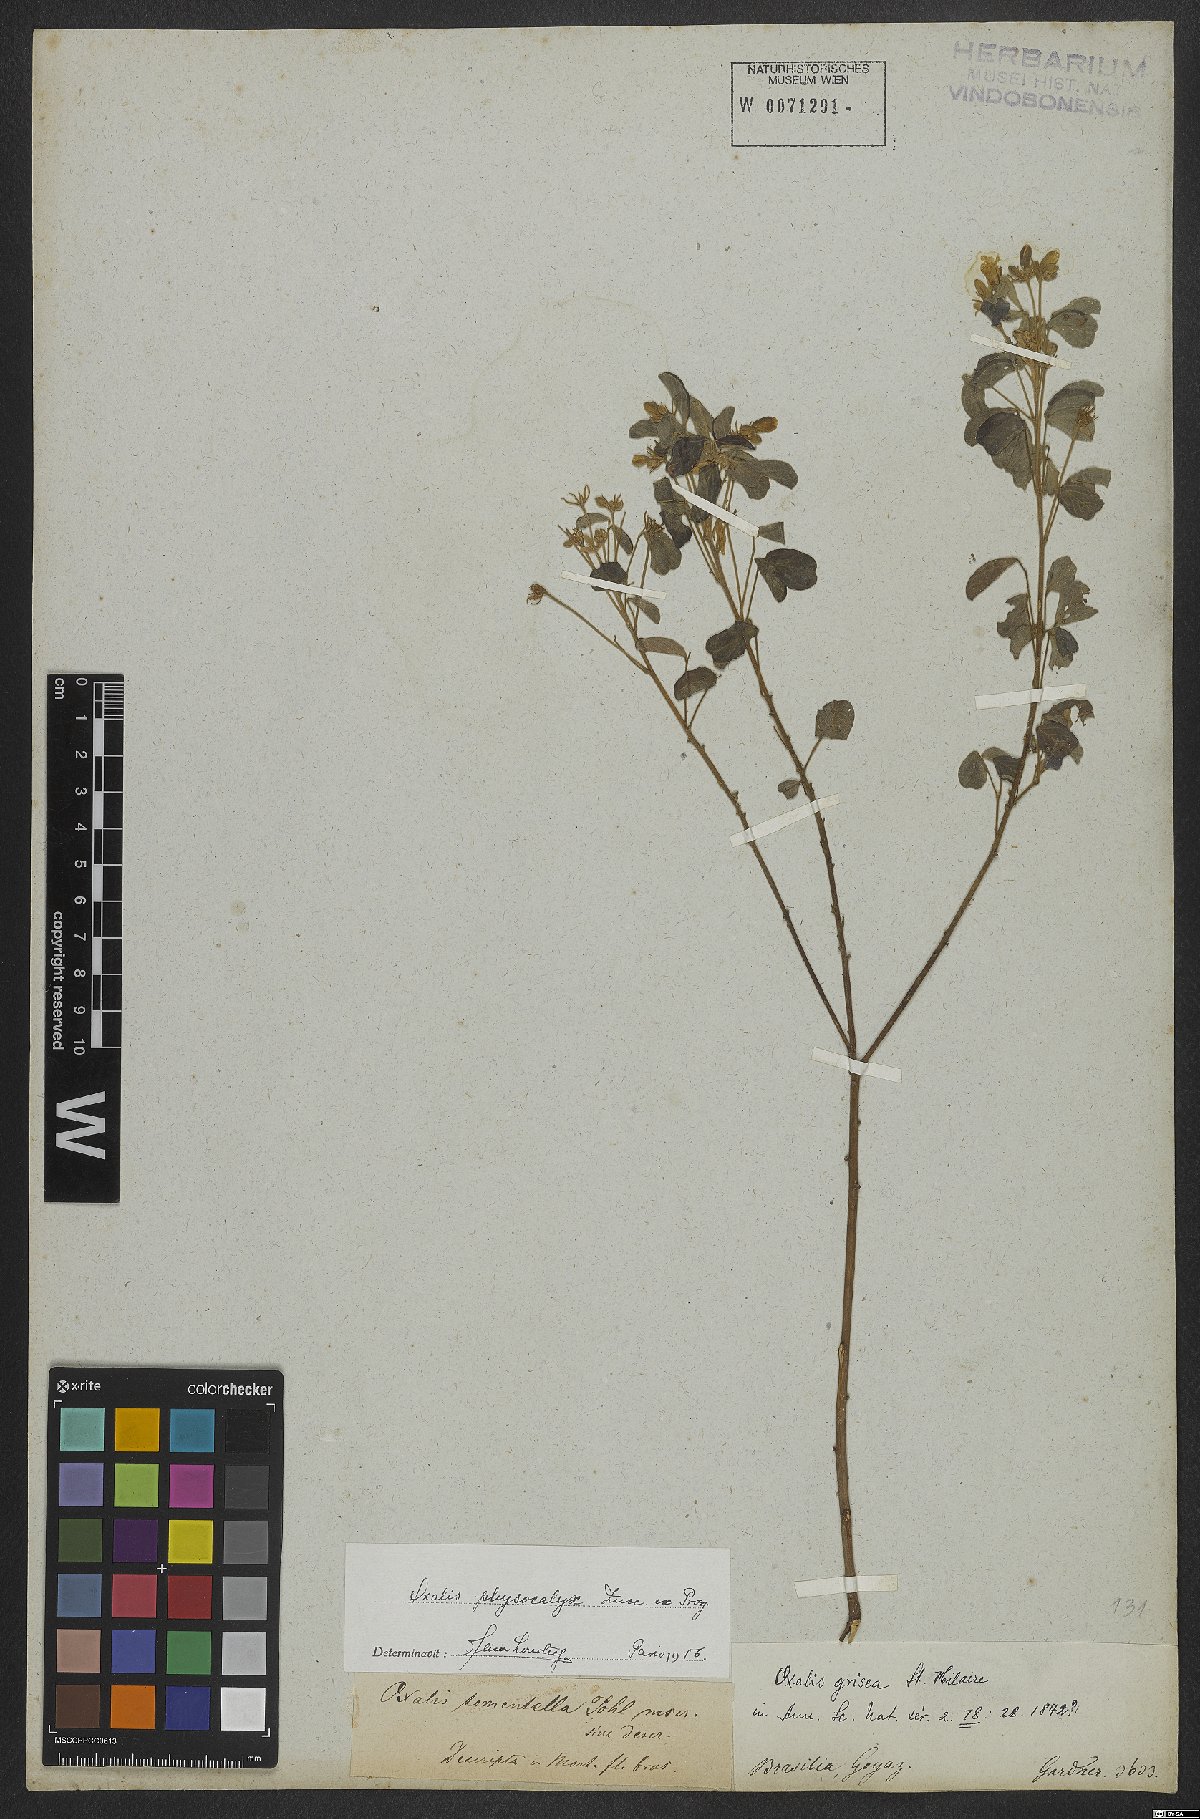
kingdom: Plantae
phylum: Tracheophyta
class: Magnoliopsida
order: Oxalidales
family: Oxalidaceae
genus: Oxalis
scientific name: Oxalis physocalyx
